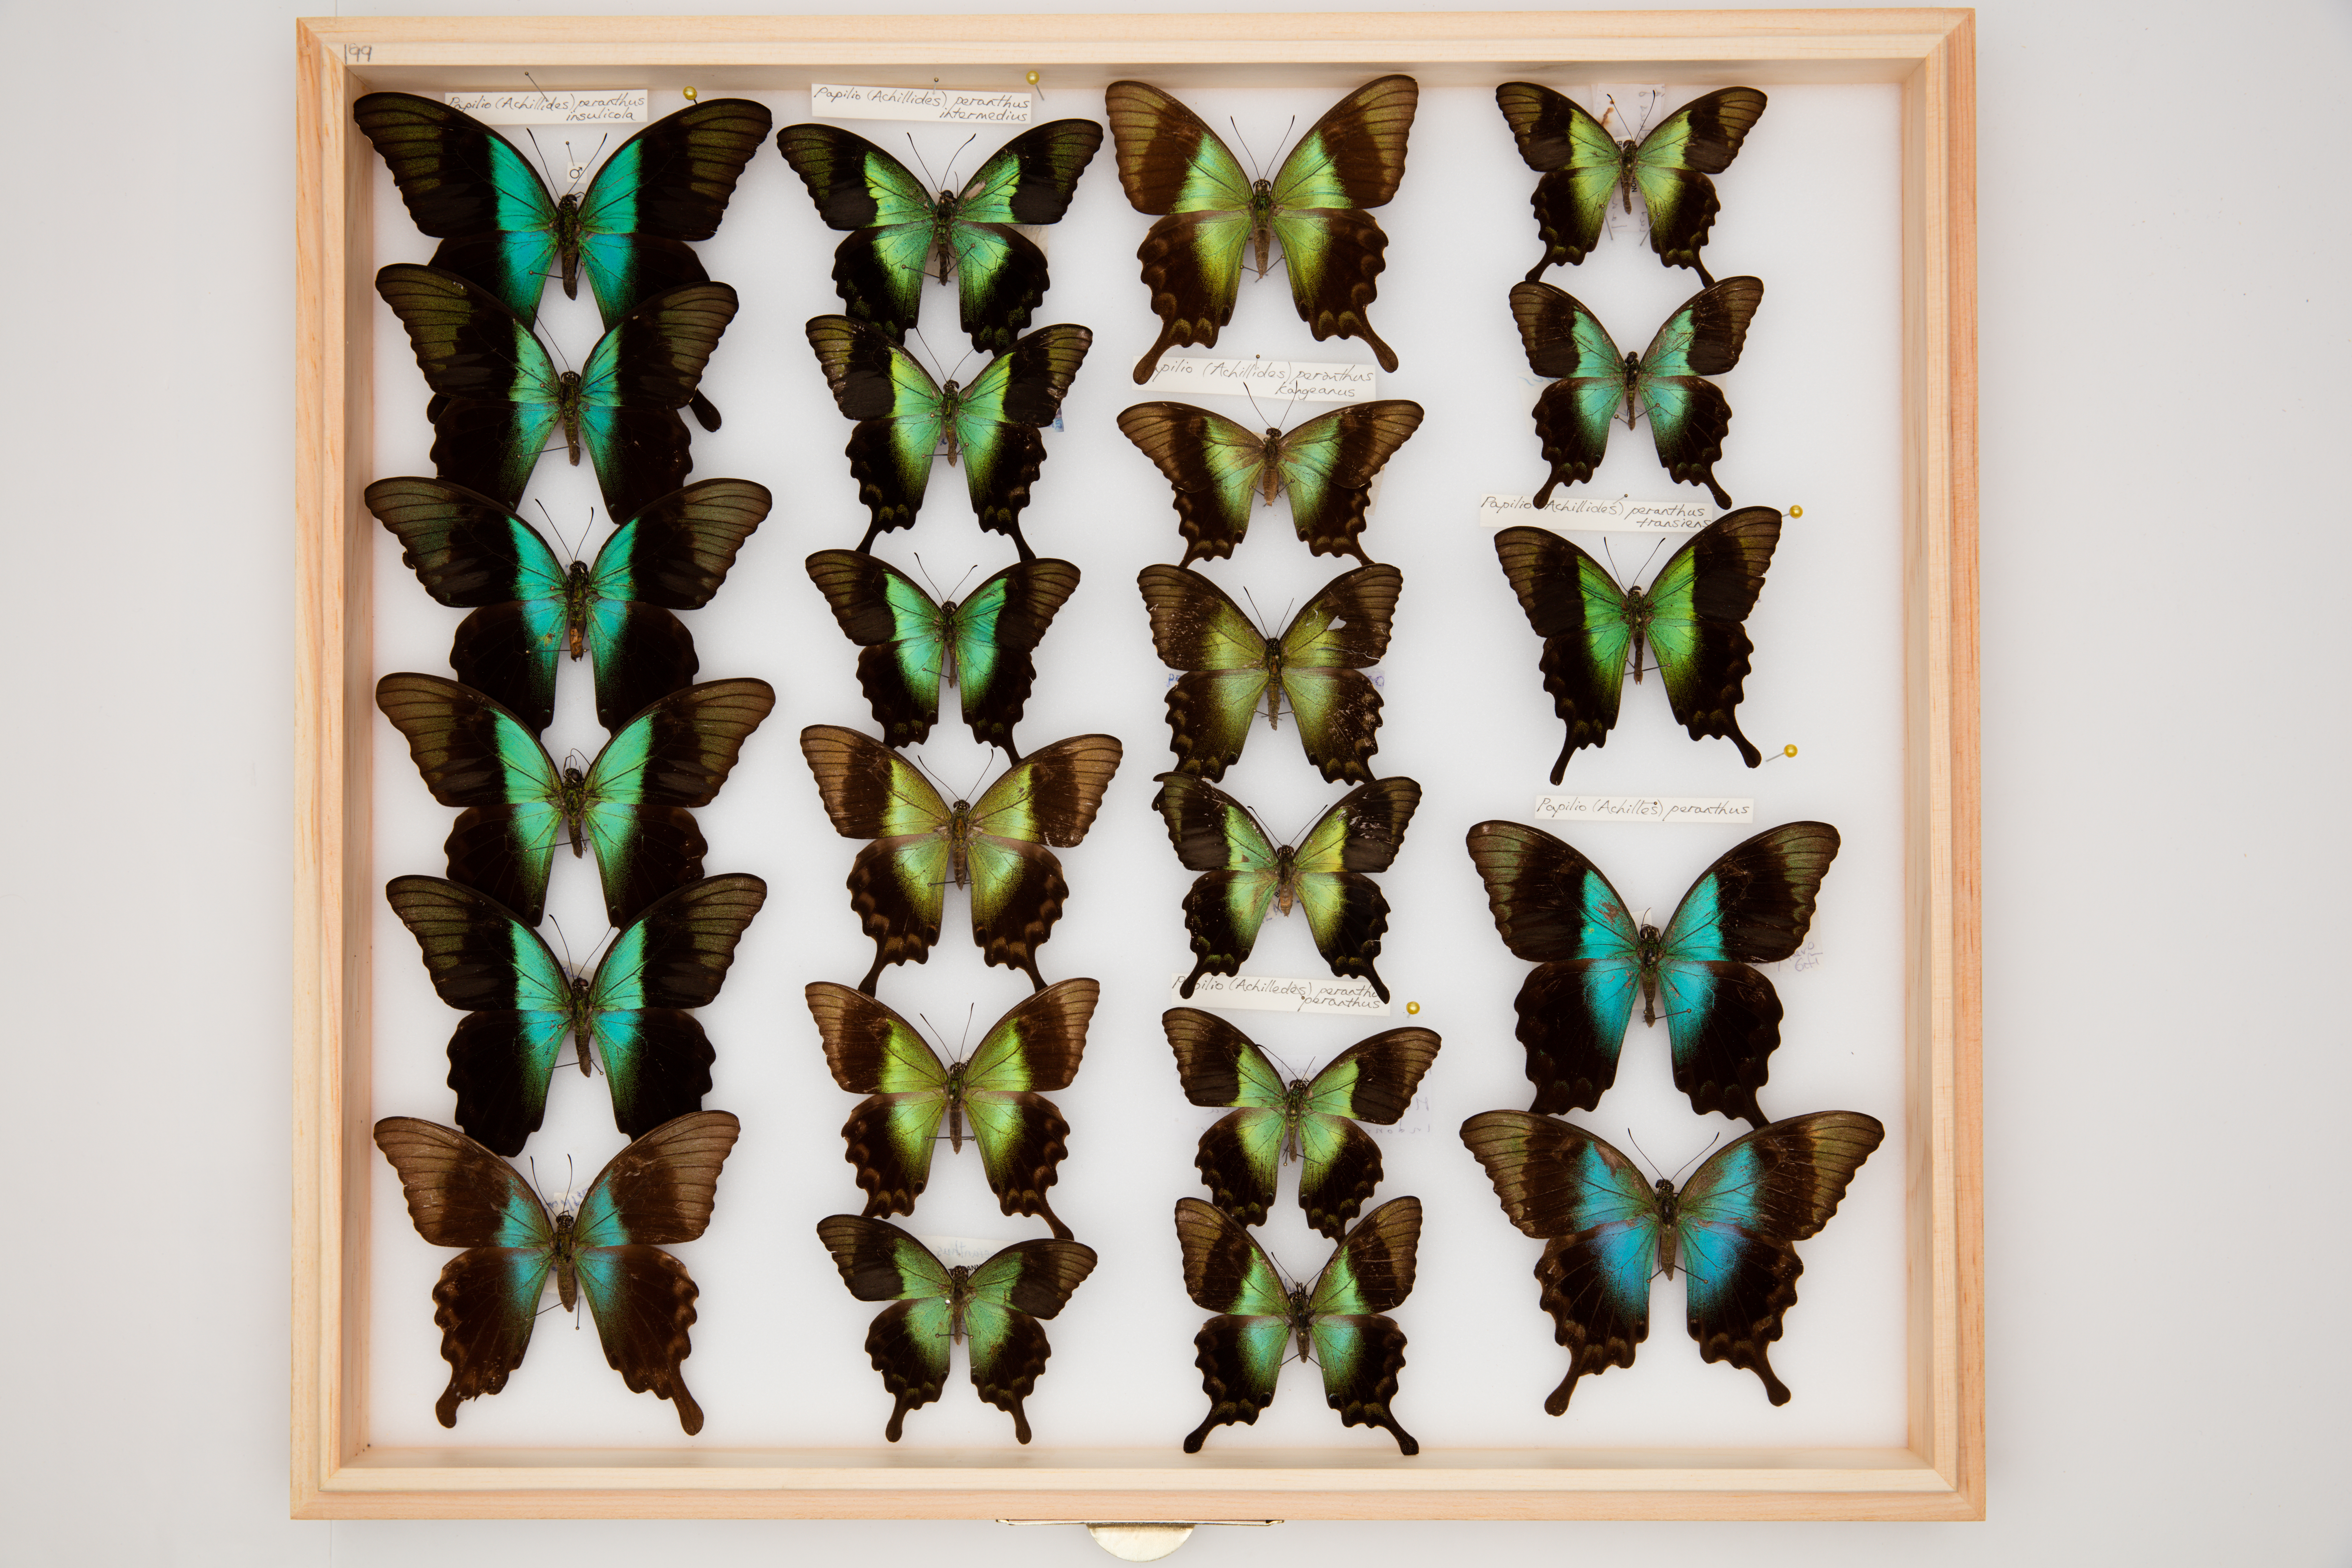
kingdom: Animalia
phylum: Arthropoda
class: Insecta
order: Lepidoptera
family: Papilionidae
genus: Papilio
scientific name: Papilio peranthus
